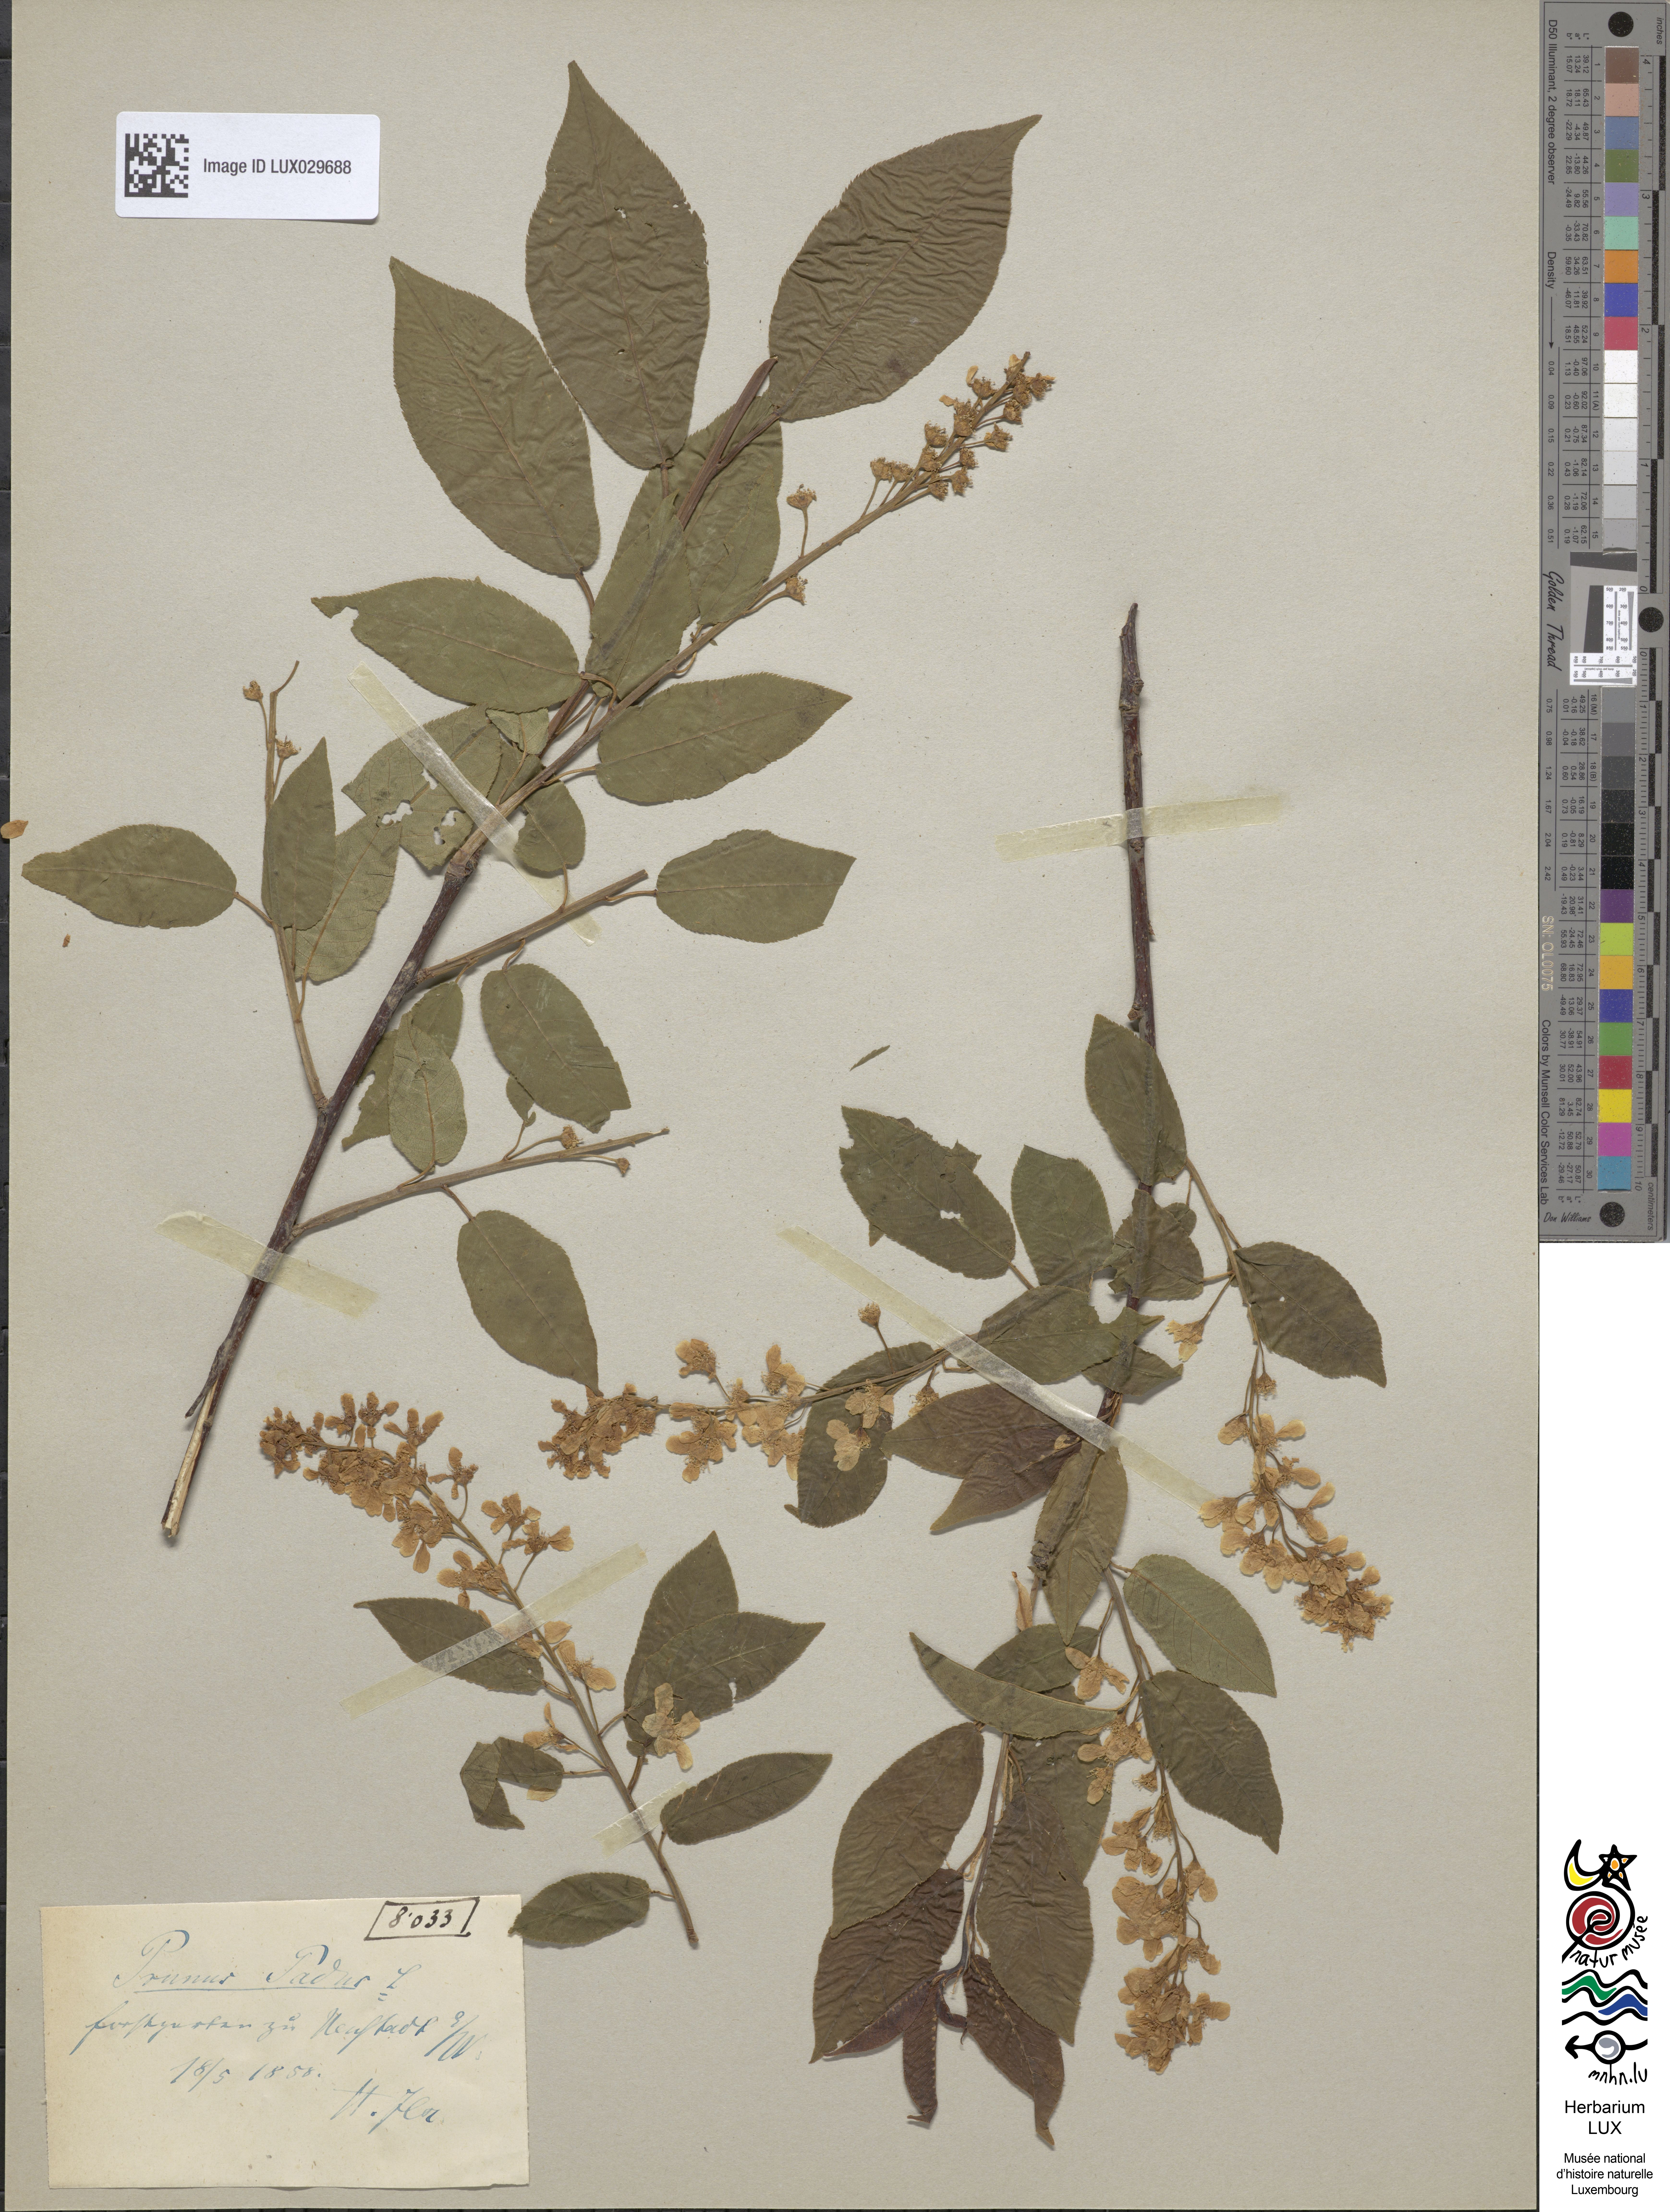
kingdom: Plantae
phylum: Tracheophyta
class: Magnoliopsida
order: Rosales
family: Rosaceae
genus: Prunus
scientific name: Prunus padus
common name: Bird cherry
